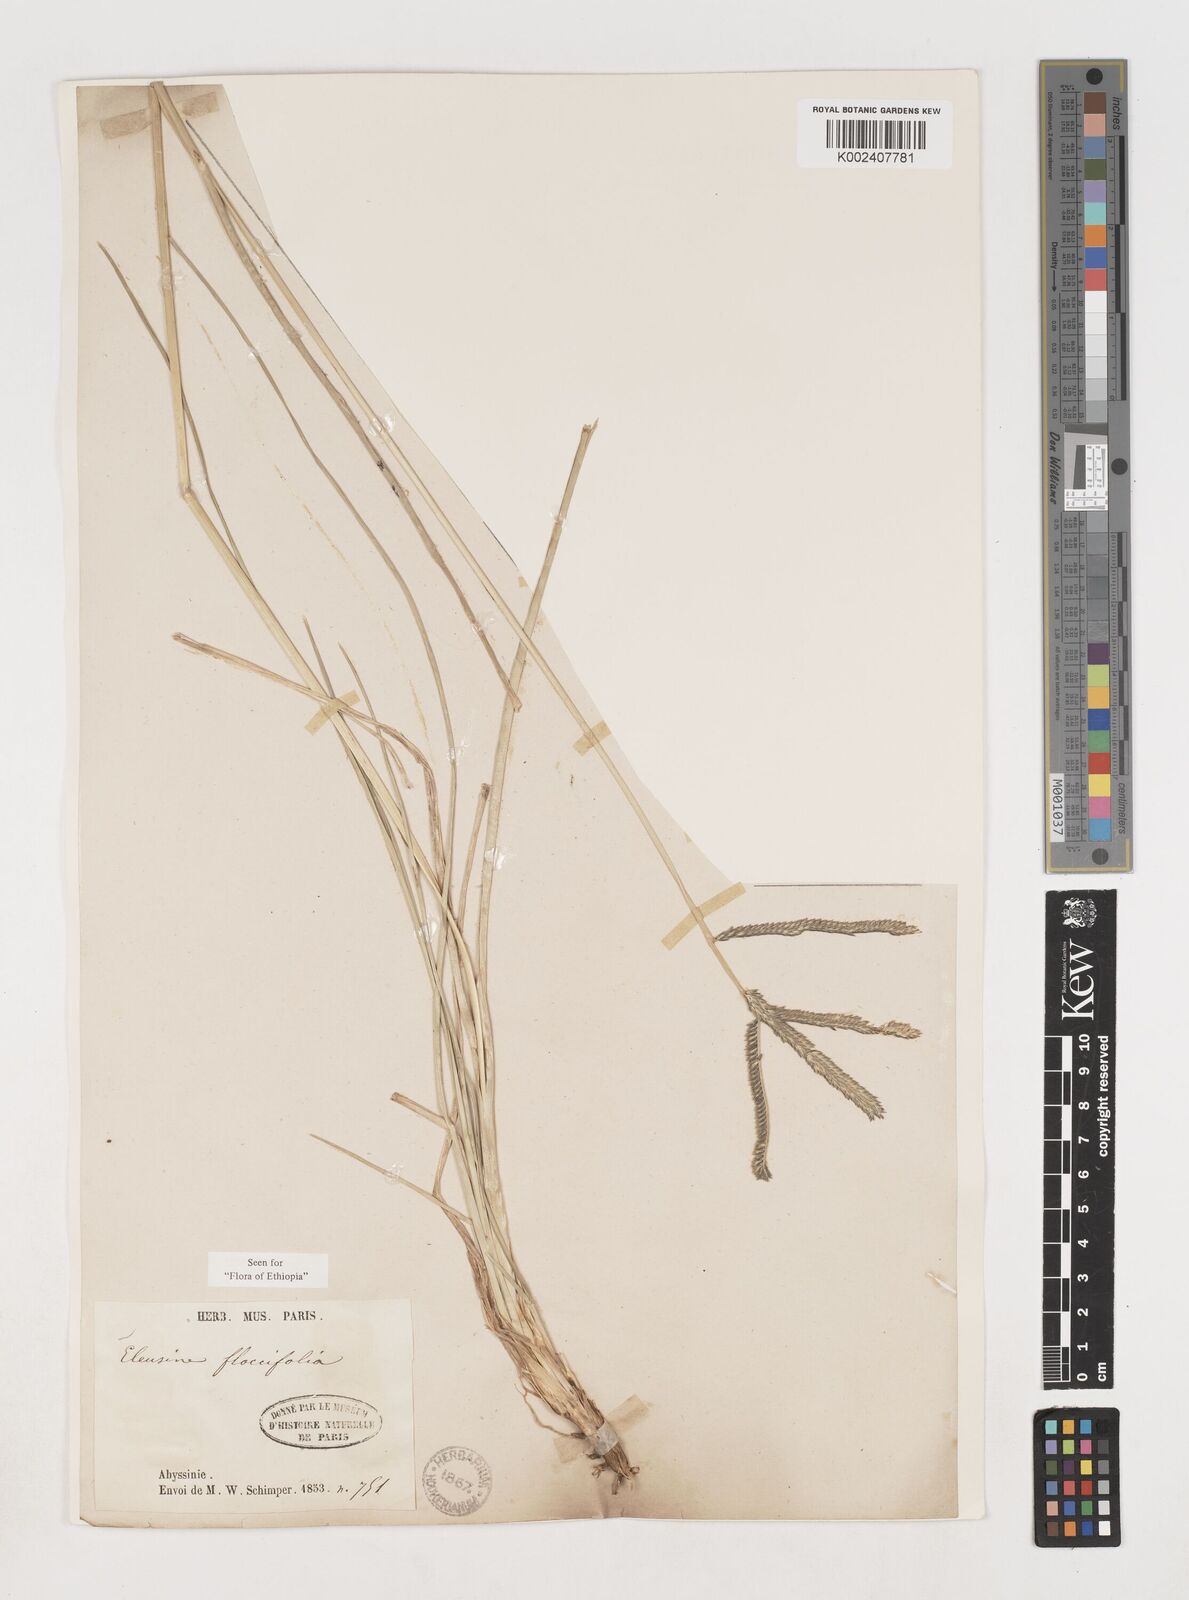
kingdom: Plantae
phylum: Tracheophyta
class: Liliopsida
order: Poales
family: Poaceae
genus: Eleusine
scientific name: Eleusine floccifolia
